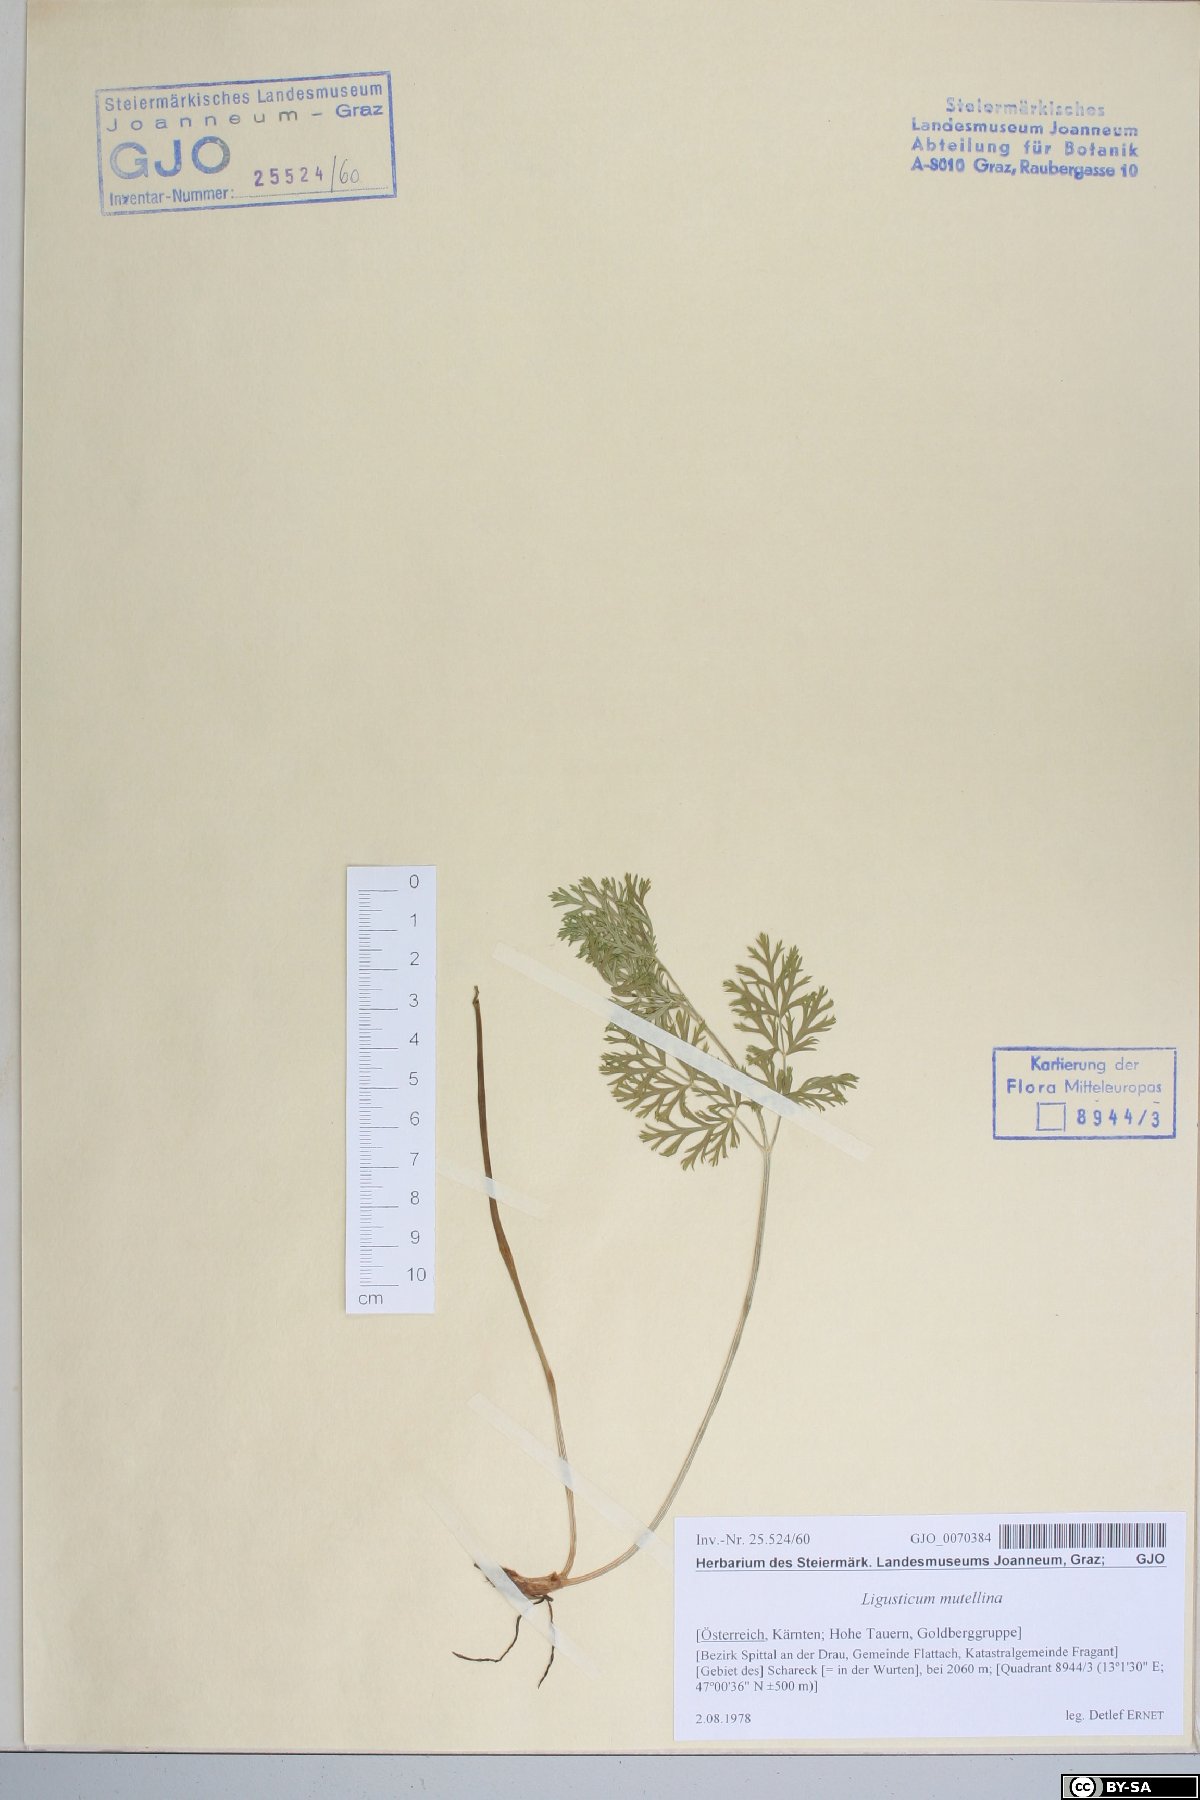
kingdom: Plantae
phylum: Tracheophyta
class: Magnoliopsida
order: Apiales
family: Apiaceae
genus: Mutellina
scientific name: Mutellina adonidifolia
